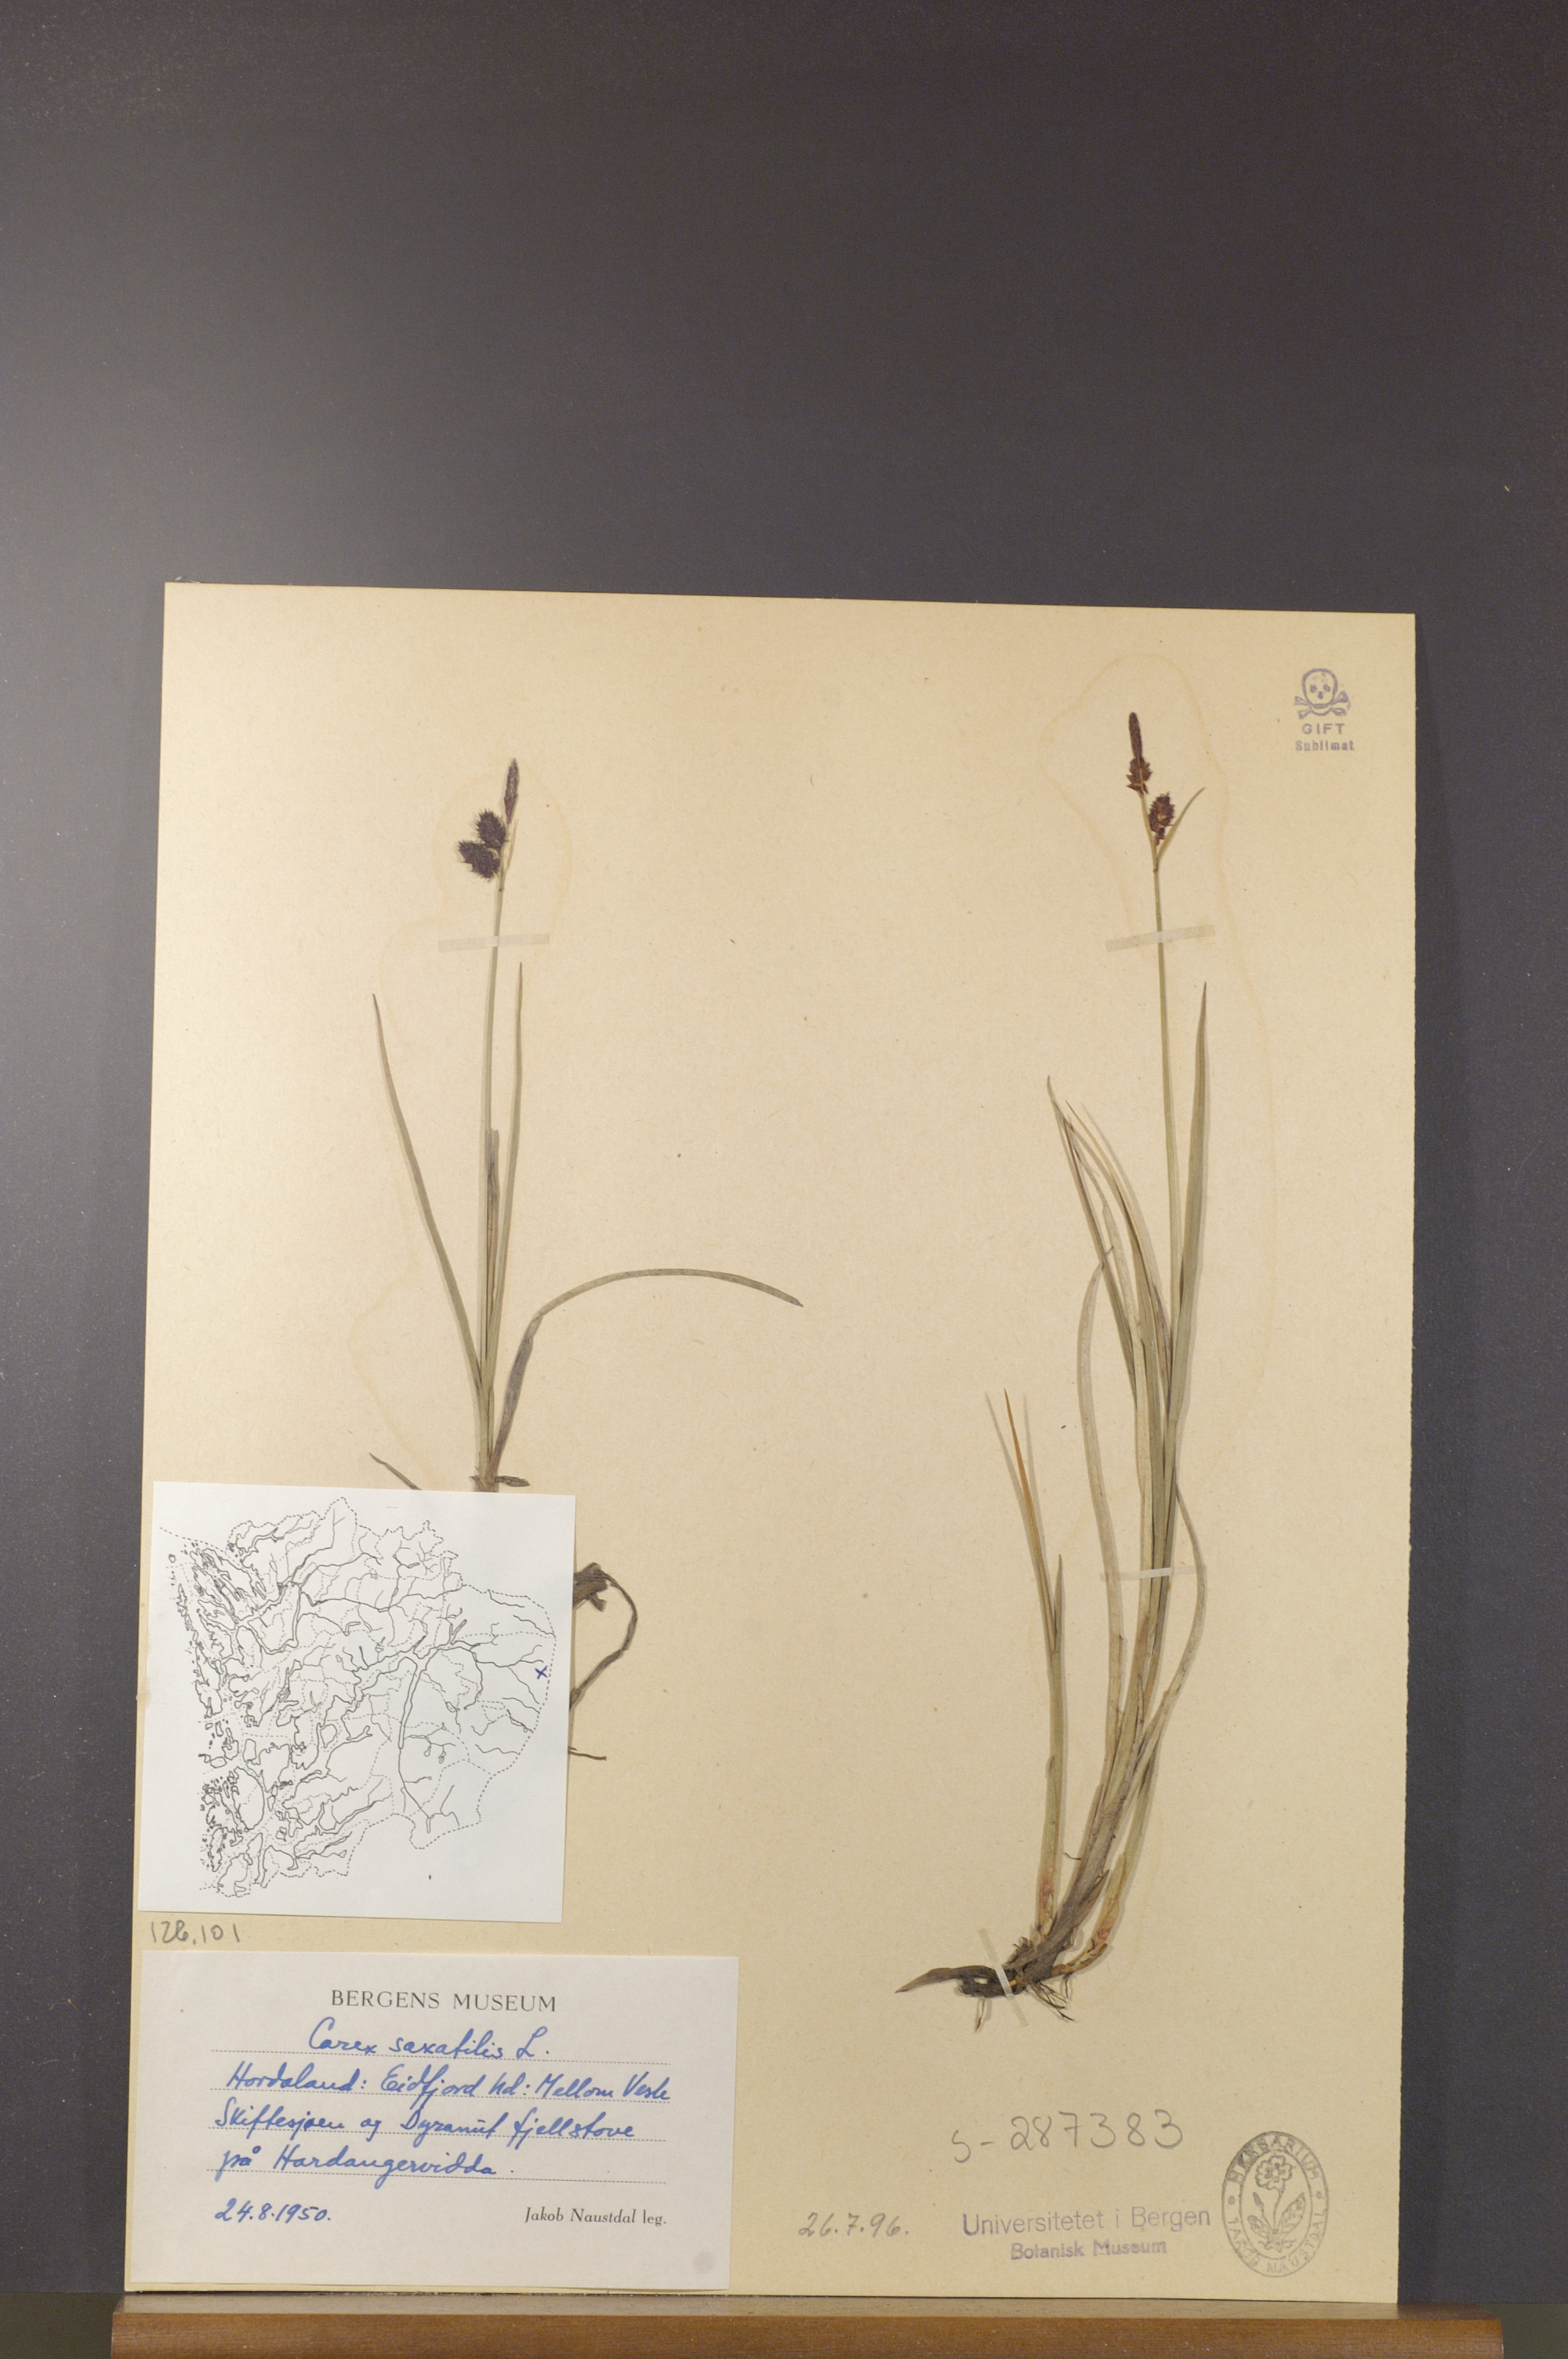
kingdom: Plantae
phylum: Tracheophyta
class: Liliopsida
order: Poales
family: Cyperaceae
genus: Carex
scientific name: Carex saxatilis
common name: Russet sedge
